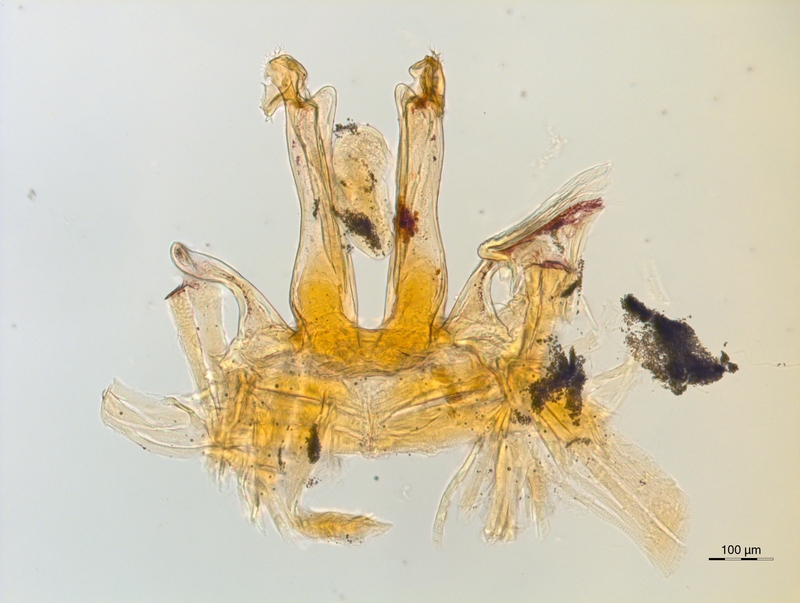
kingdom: Animalia
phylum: Arthropoda
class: Diplopoda
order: Chordeumatida
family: Craspedosomatidae
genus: Rothenbuehleria
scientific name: Rothenbuehleria tirolense
